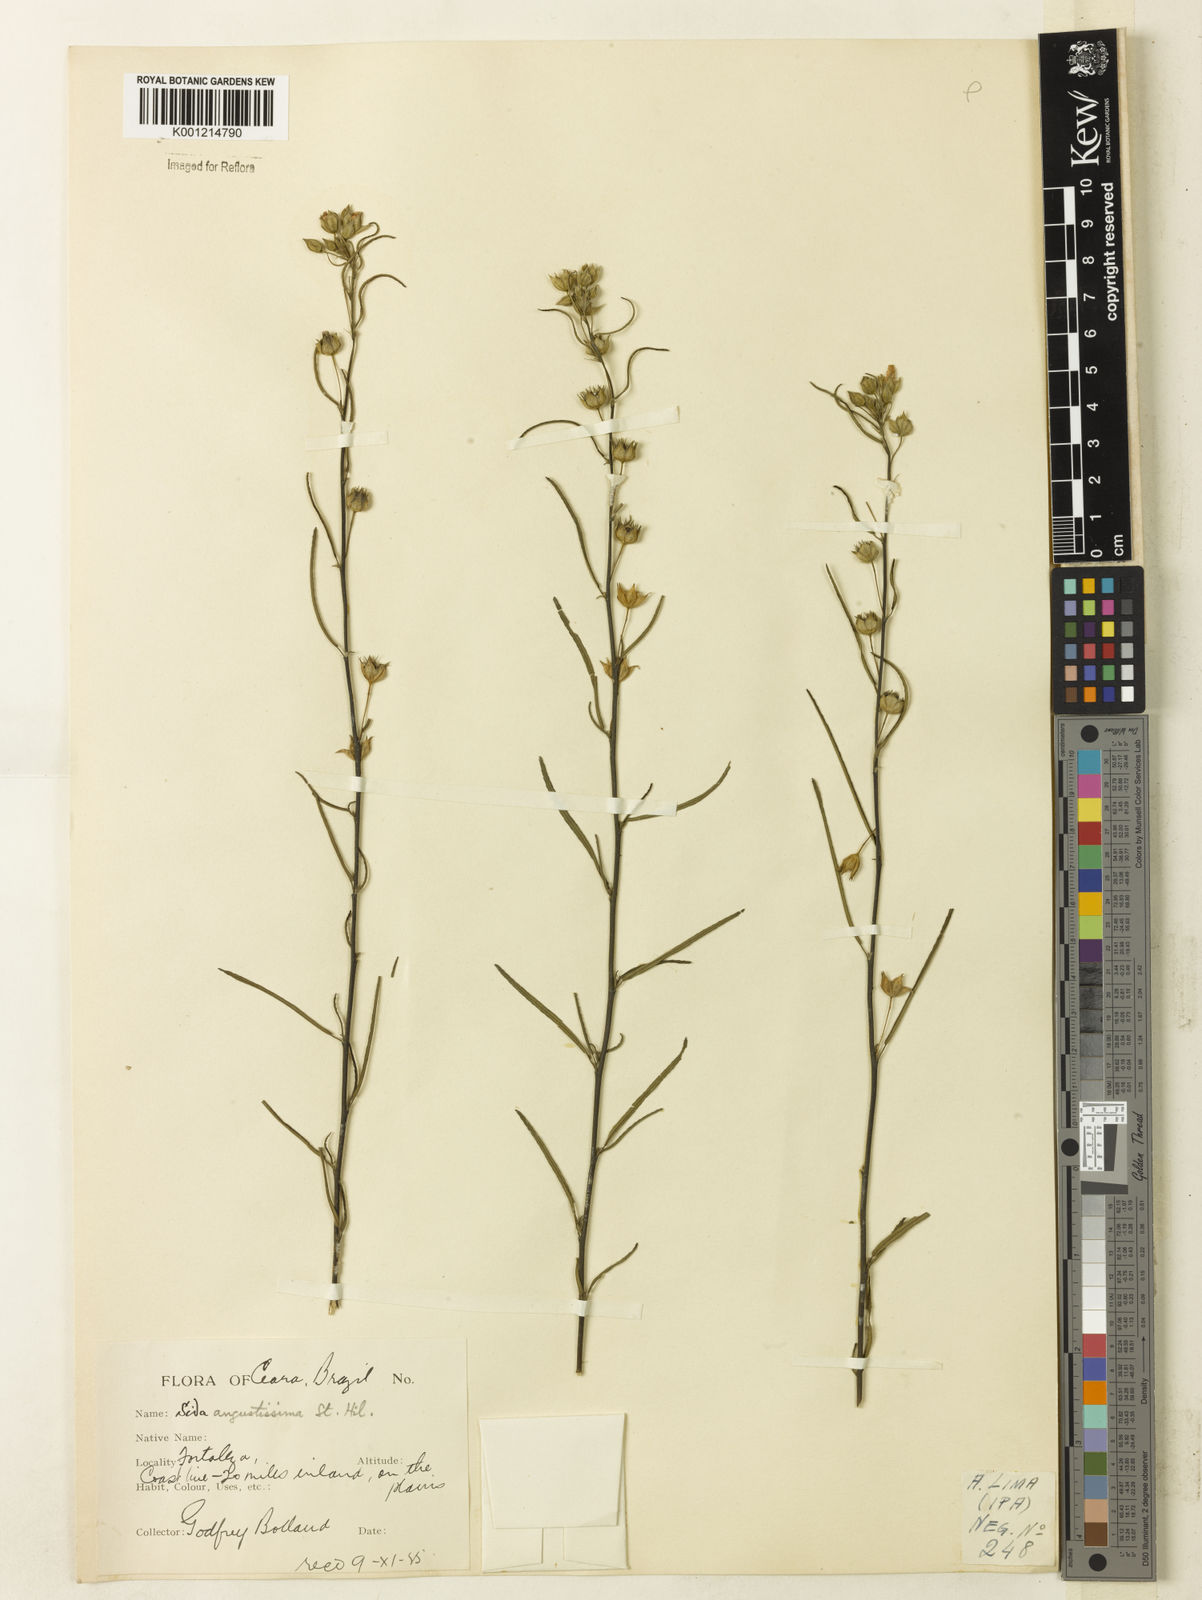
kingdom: Plantae
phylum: Tracheophyta
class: Magnoliopsida
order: Malvales
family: Malvaceae
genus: Sida
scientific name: Sida angustissima
